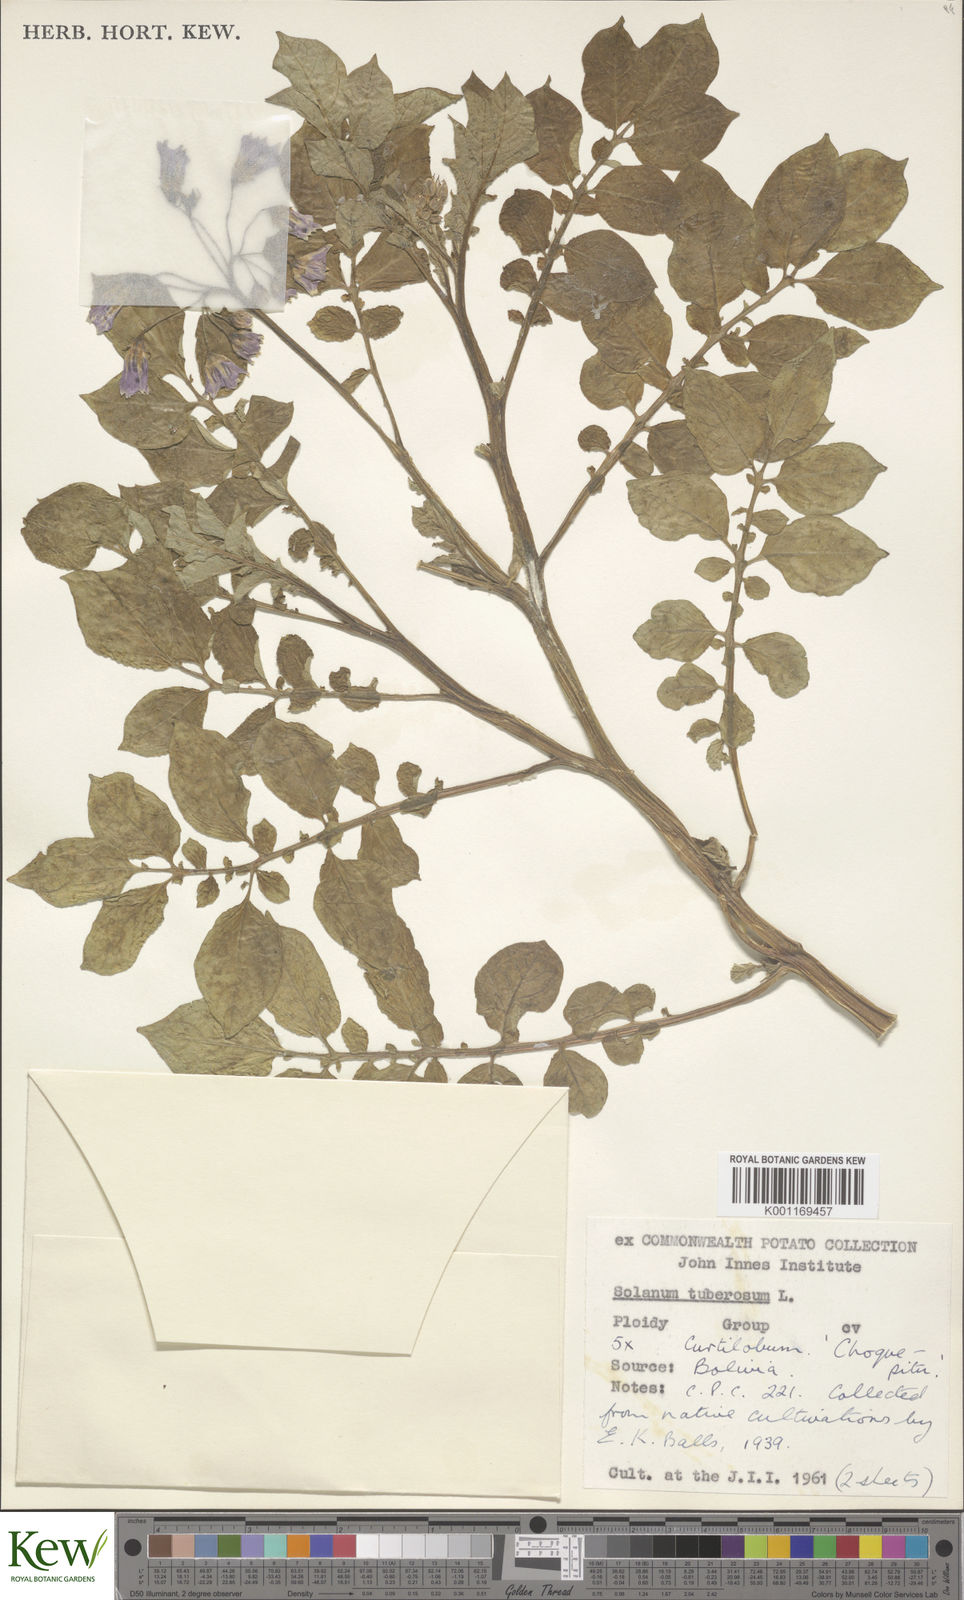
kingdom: Plantae
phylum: Tracheophyta
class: Magnoliopsida
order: Solanales
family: Solanaceae
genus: Solanum
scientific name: Solanum curtilobum
